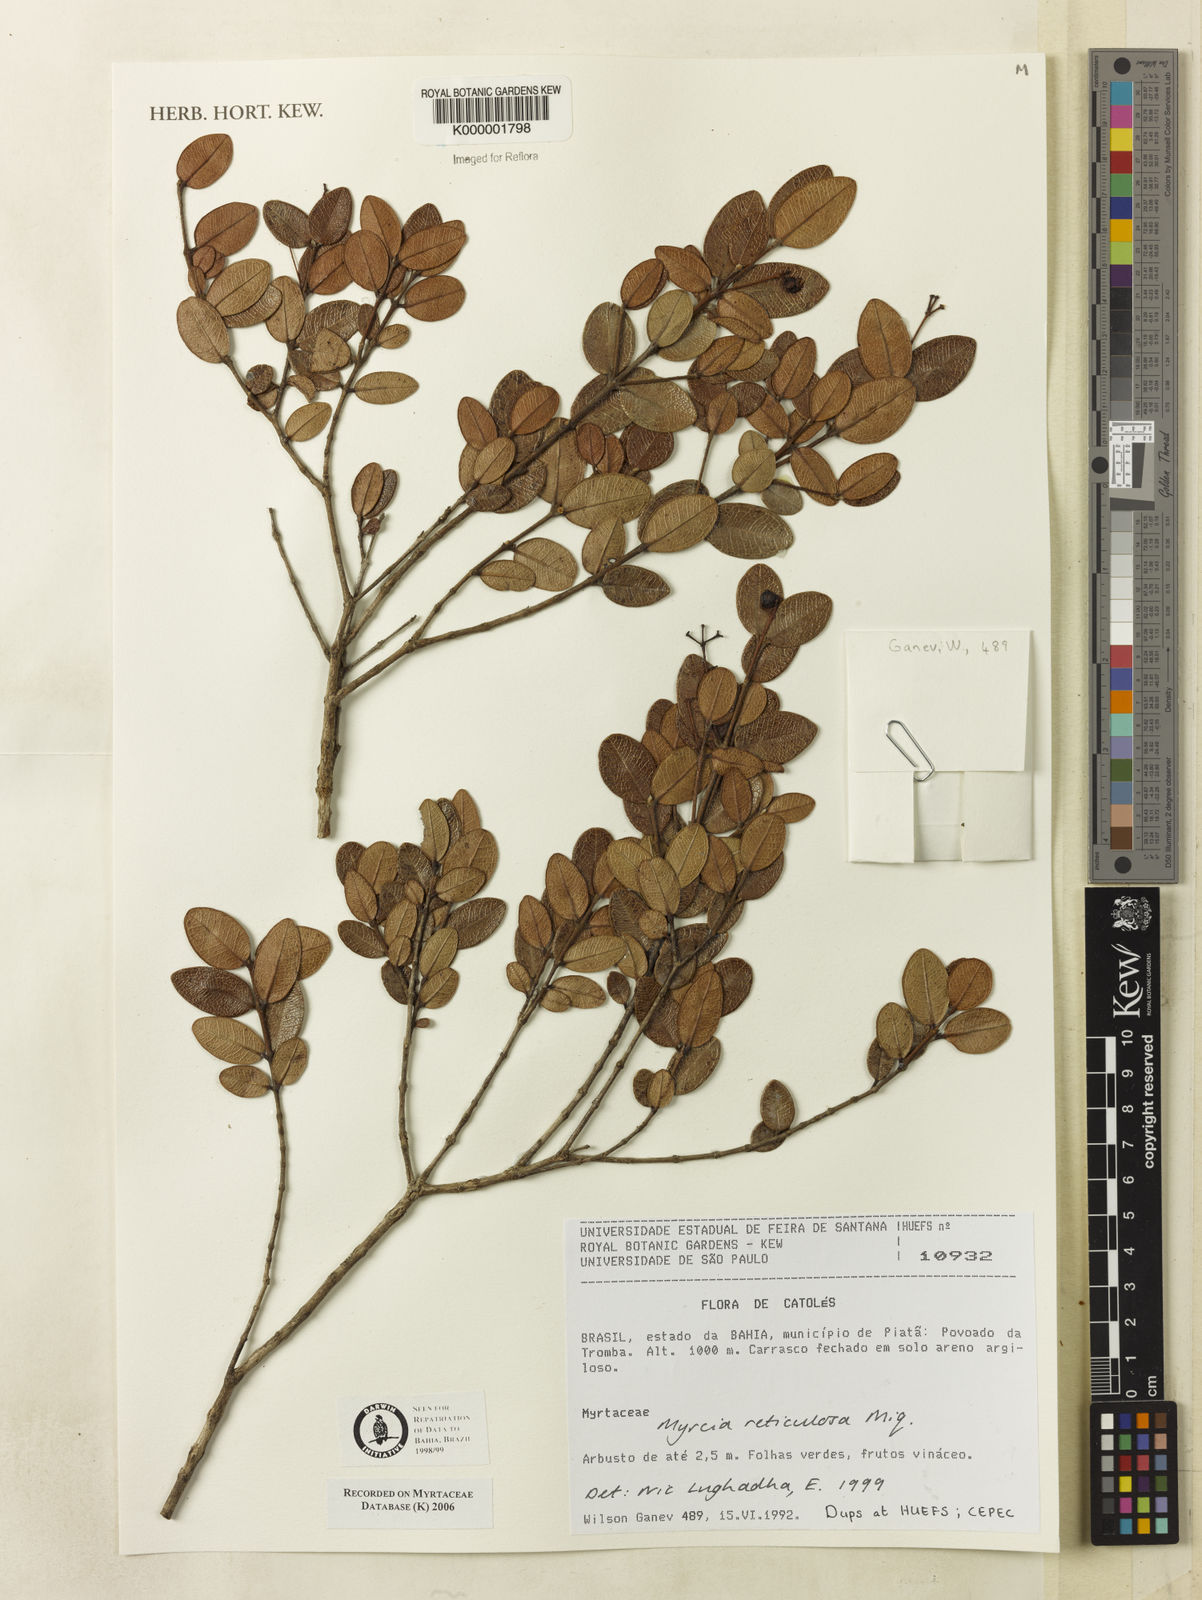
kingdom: Plantae
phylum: Tracheophyta
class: Magnoliopsida
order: Myrtales
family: Myrtaceae
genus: Myrcia
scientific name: Myrcia reticulosa
